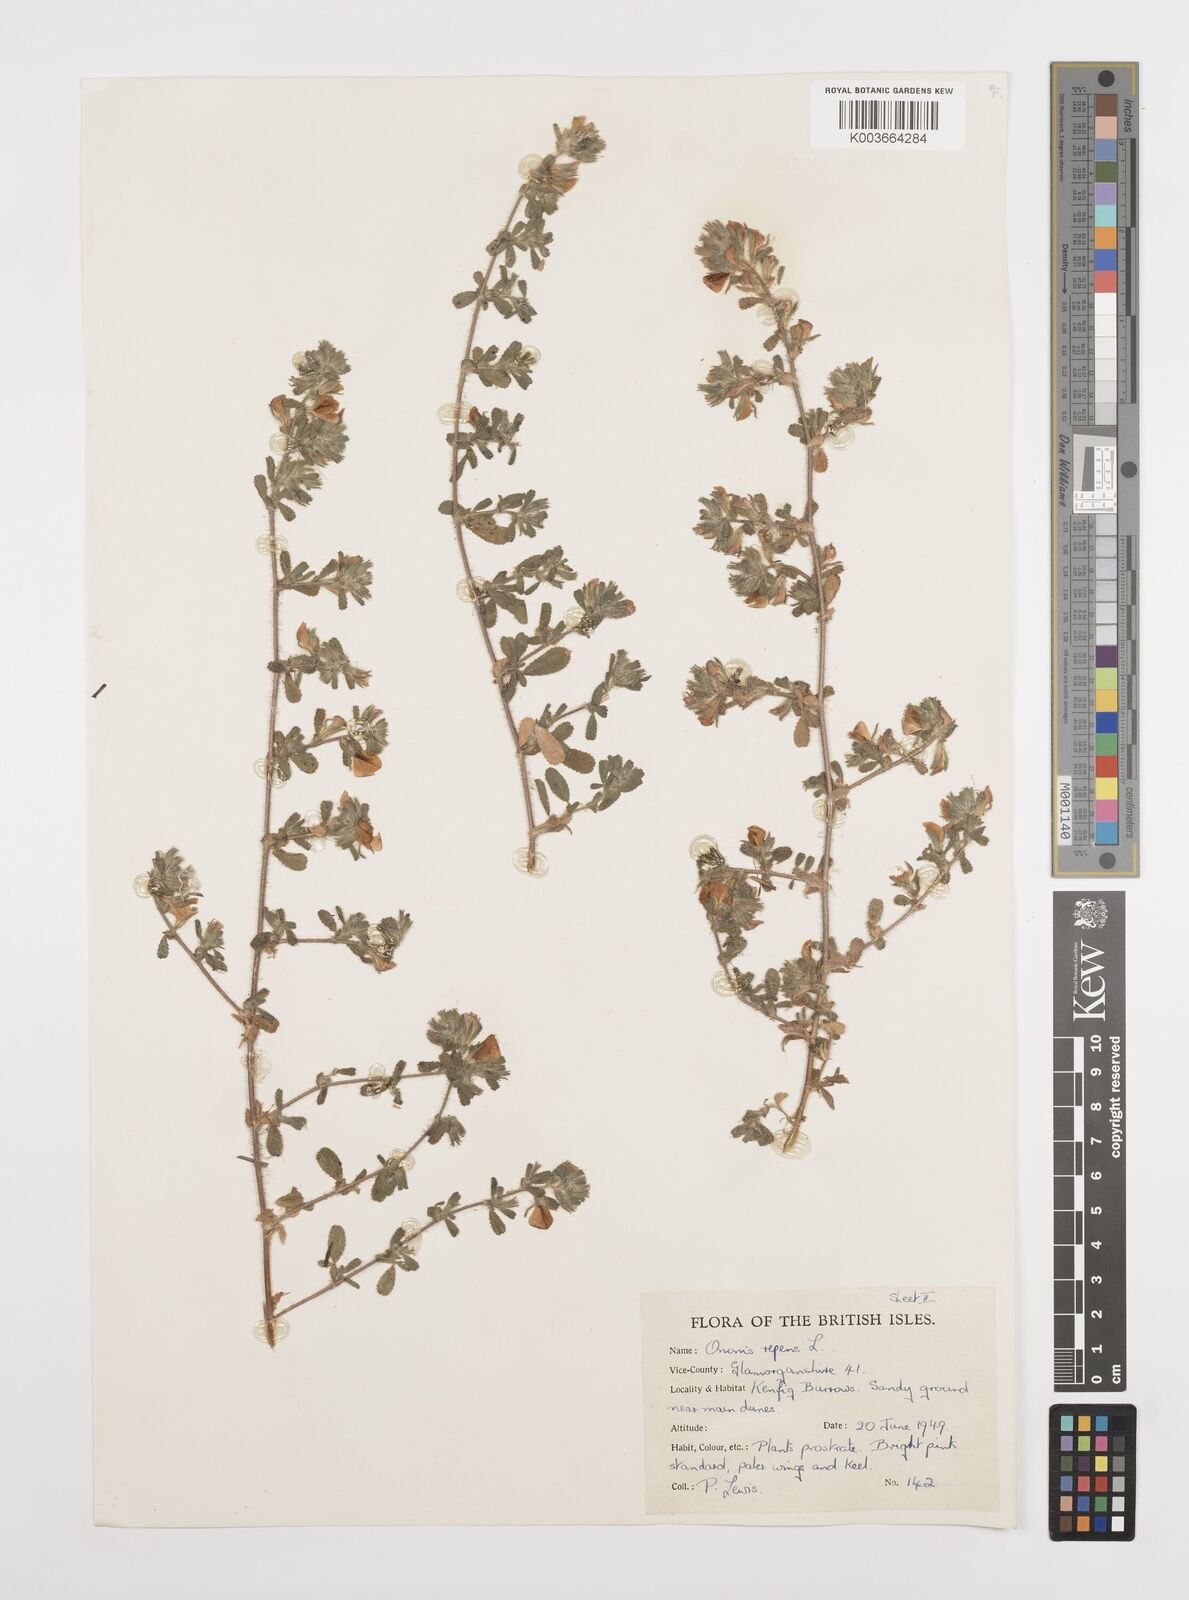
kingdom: Plantae
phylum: Tracheophyta
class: Magnoliopsida
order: Fabales
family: Fabaceae
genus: Ononis
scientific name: Ononis spinosa
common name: Spiny restharrow
